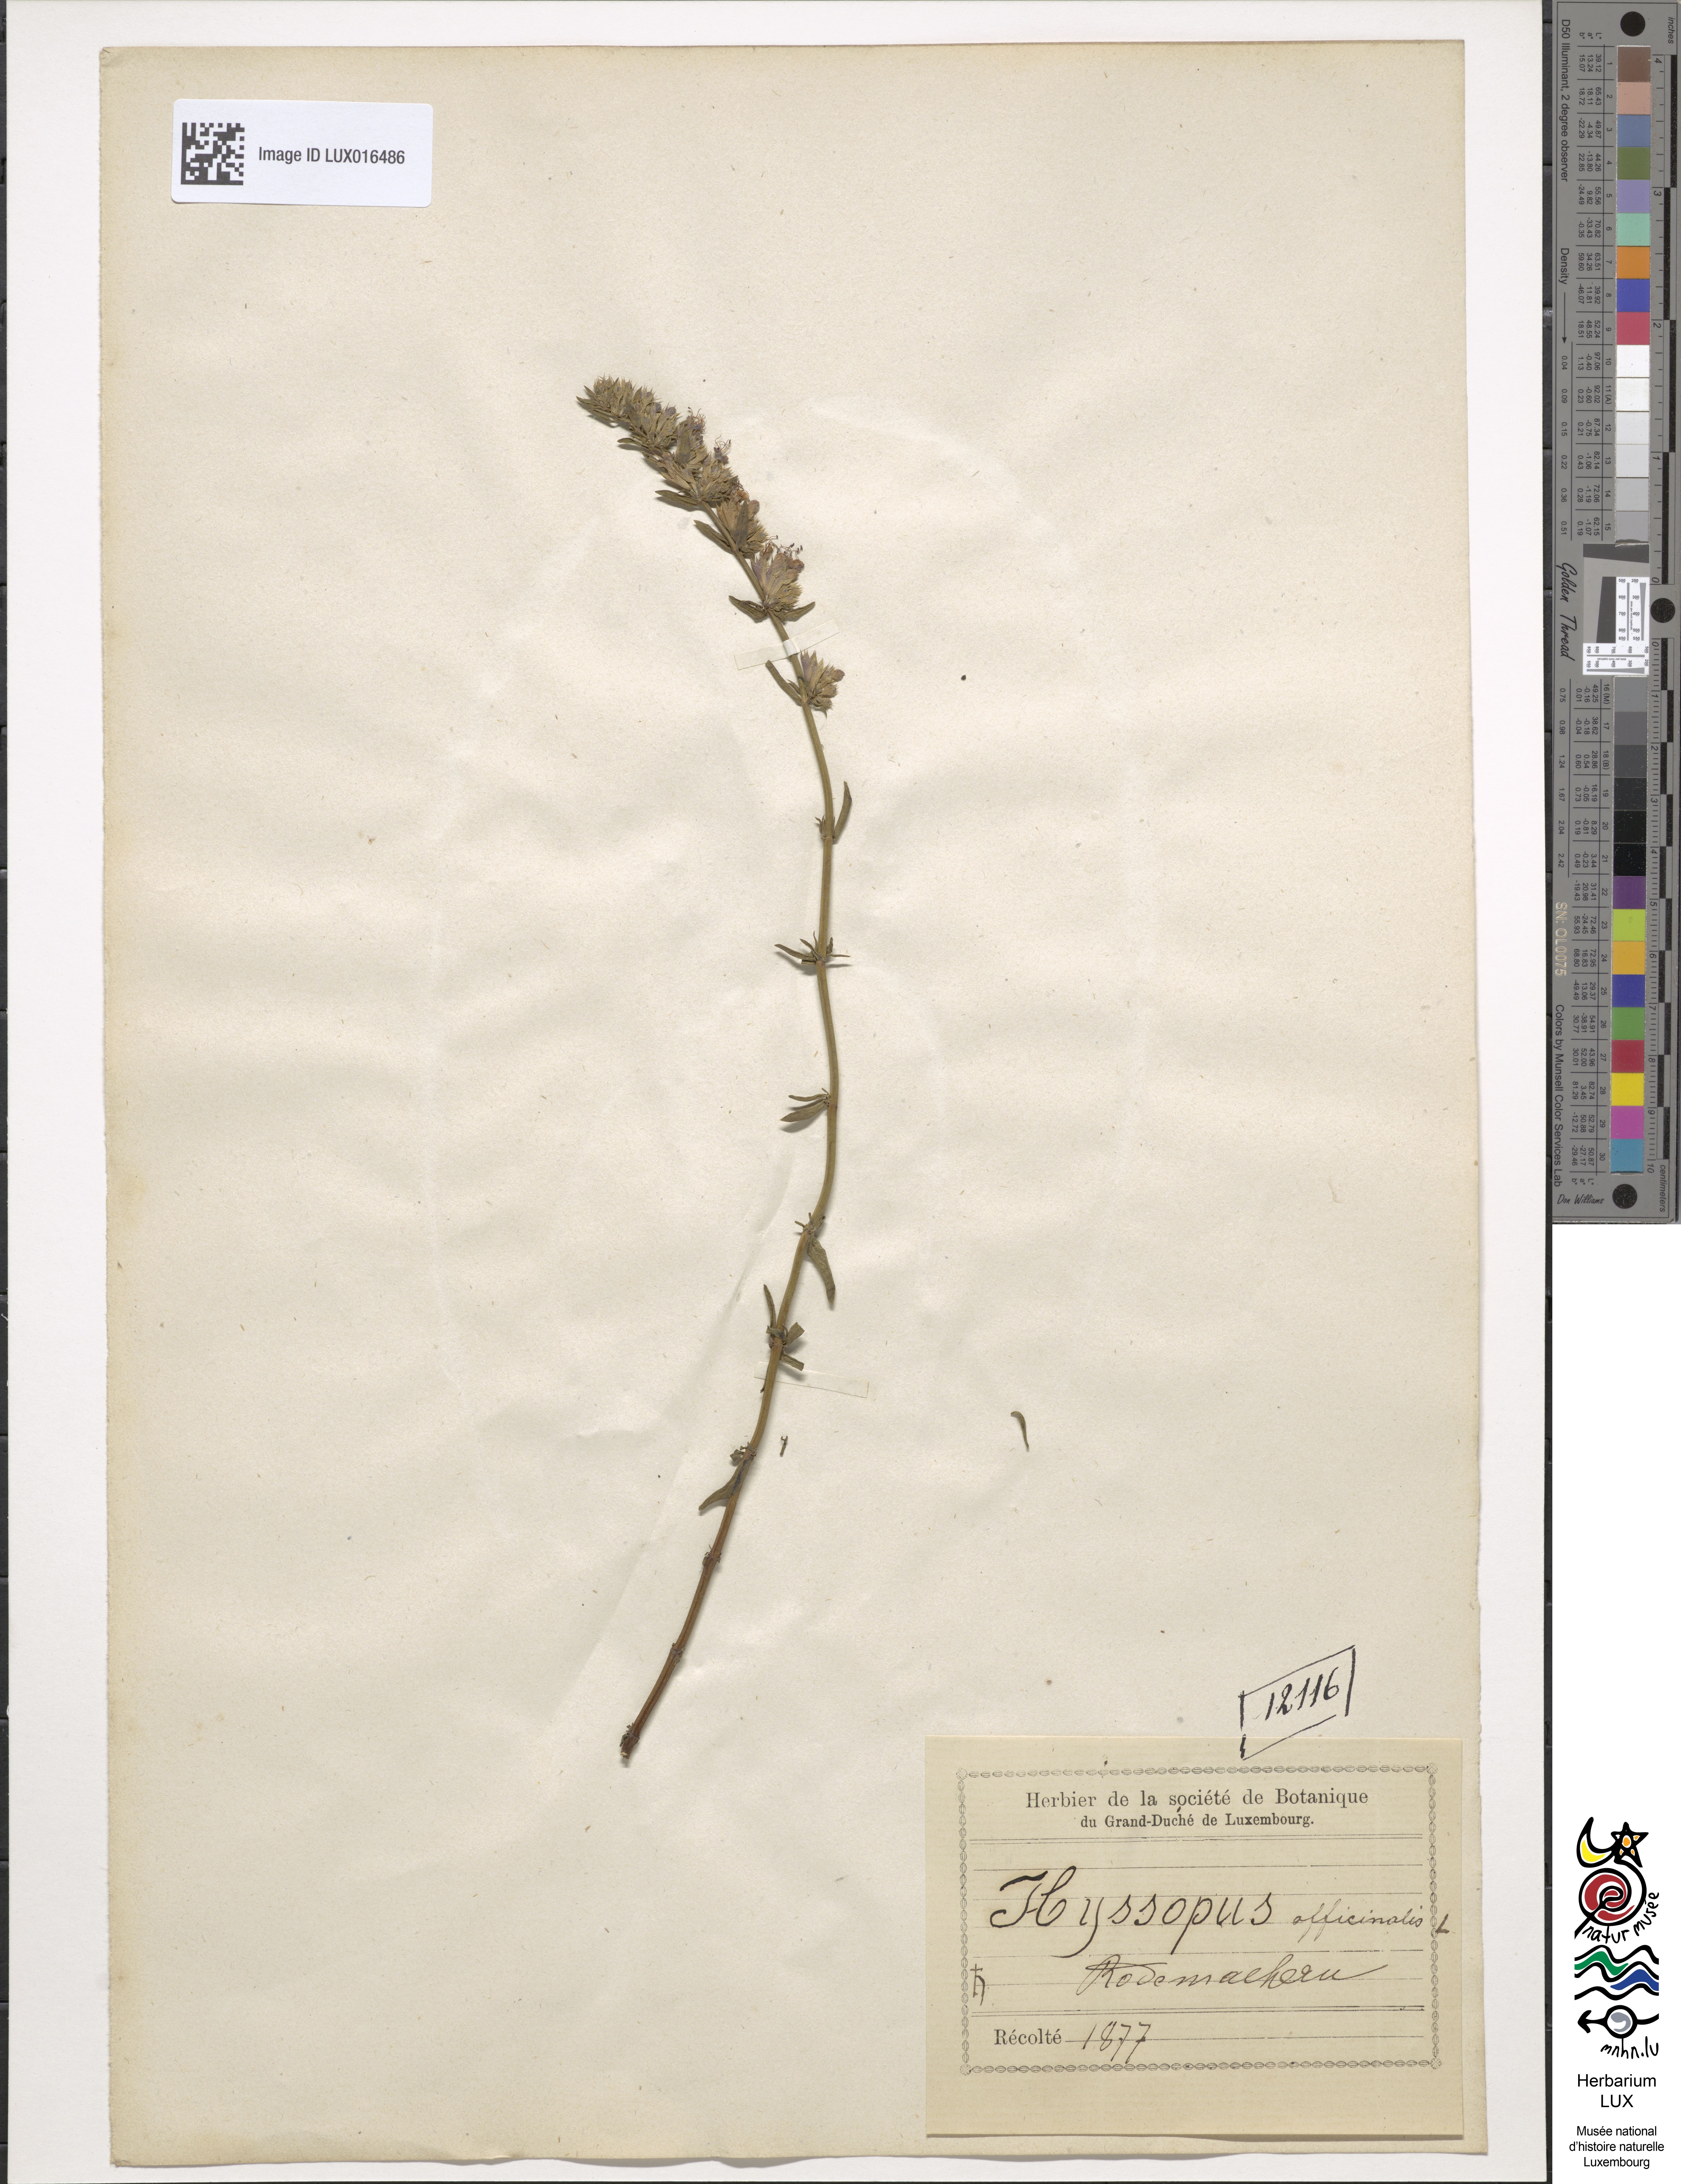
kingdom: Plantae
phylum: Tracheophyta
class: Magnoliopsida
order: Lamiales
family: Lamiaceae
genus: Hyssopus
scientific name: Hyssopus officinalis
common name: Hyssop
